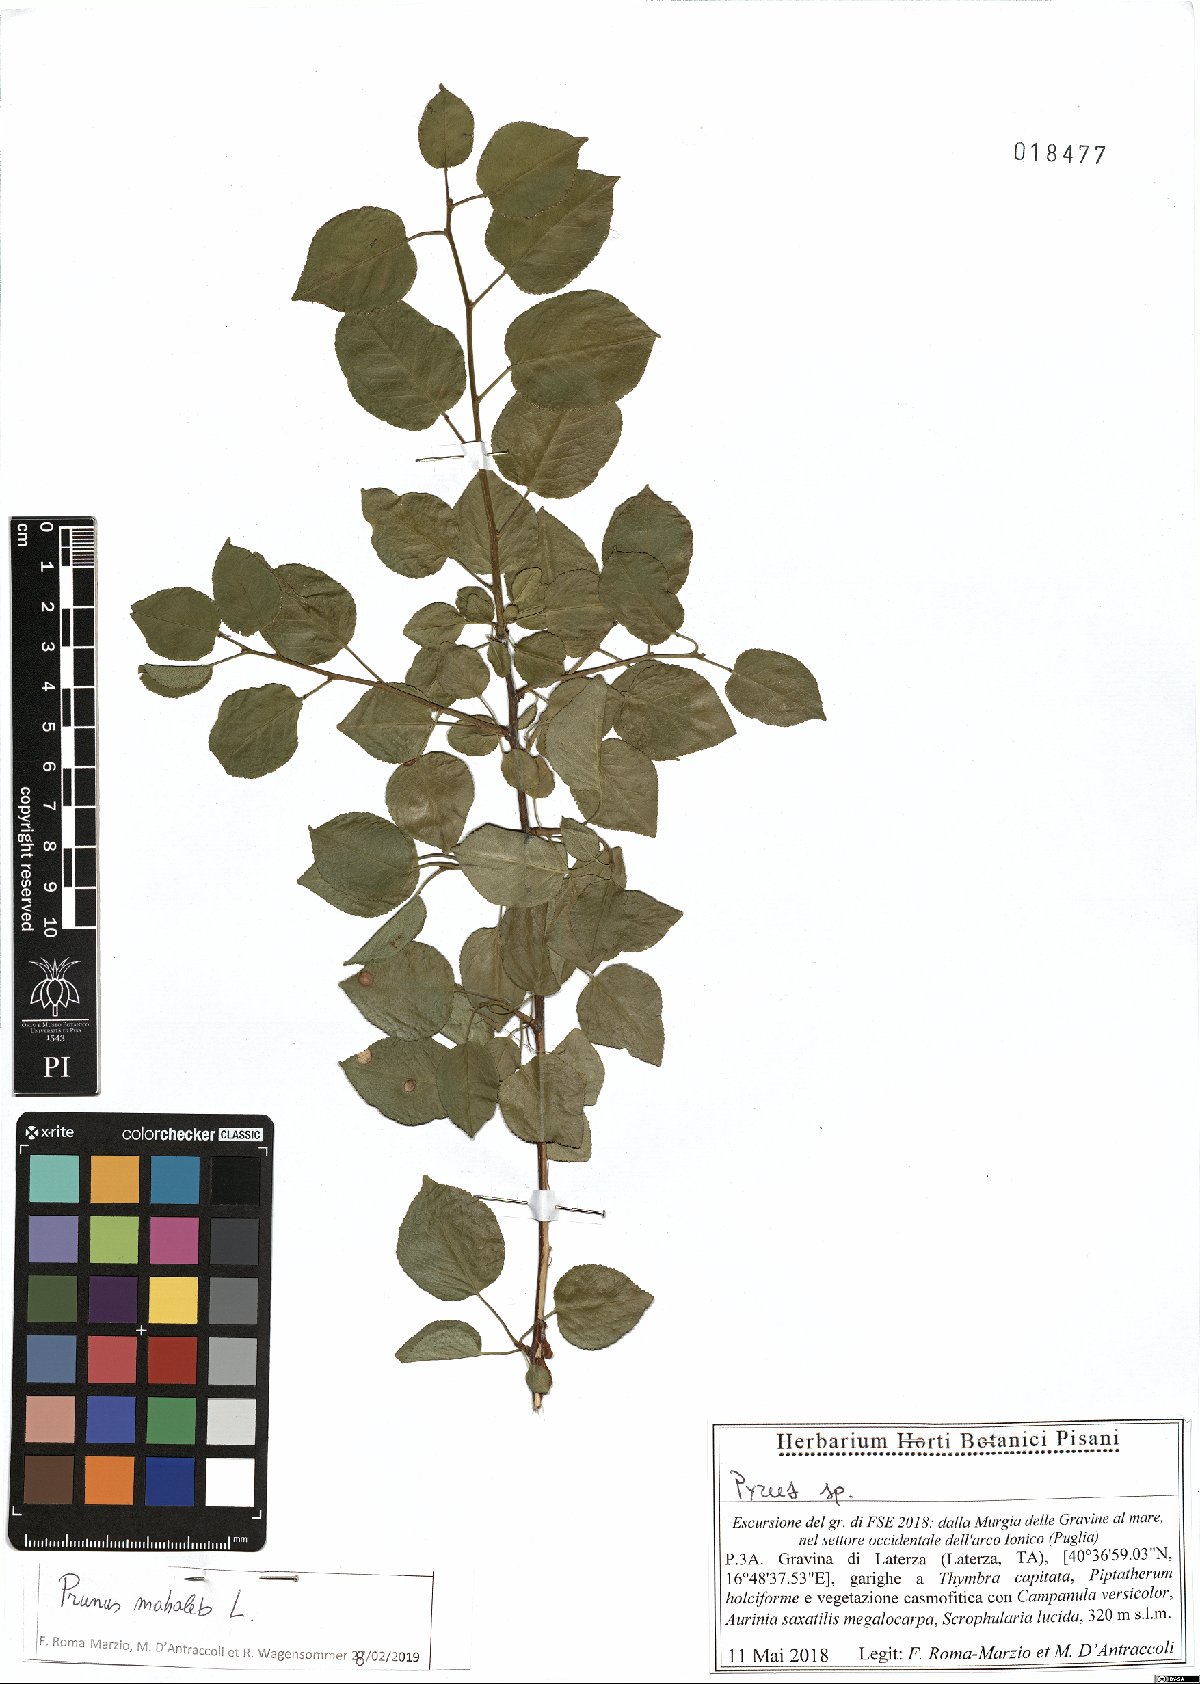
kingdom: Plantae
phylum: Tracheophyta
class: Magnoliopsida
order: Rosales
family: Rosaceae
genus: Prunus
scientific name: Prunus mahaleb
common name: Mahaleb cherry
